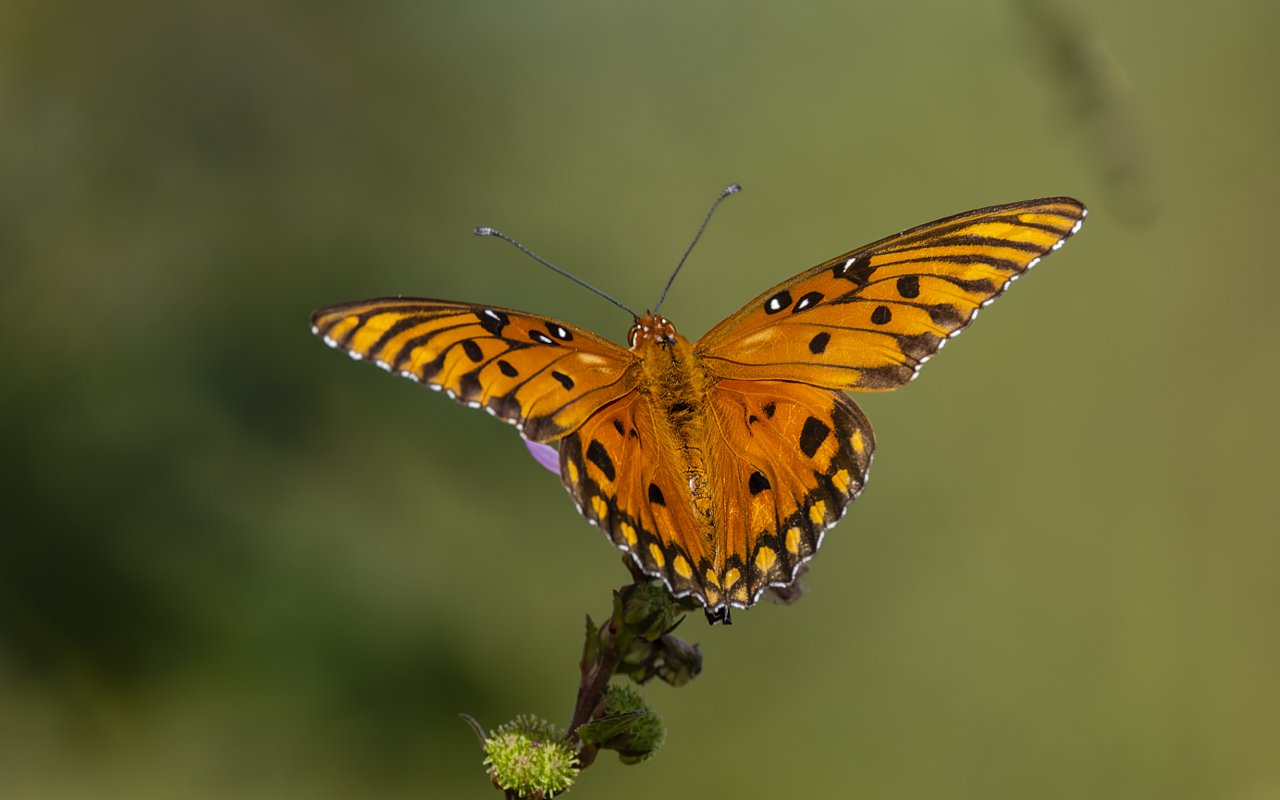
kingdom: Animalia
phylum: Arthropoda
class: Insecta
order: Lepidoptera
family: Nymphalidae
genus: Dione
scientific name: Dione vanillae
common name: Gulf Fritillary
